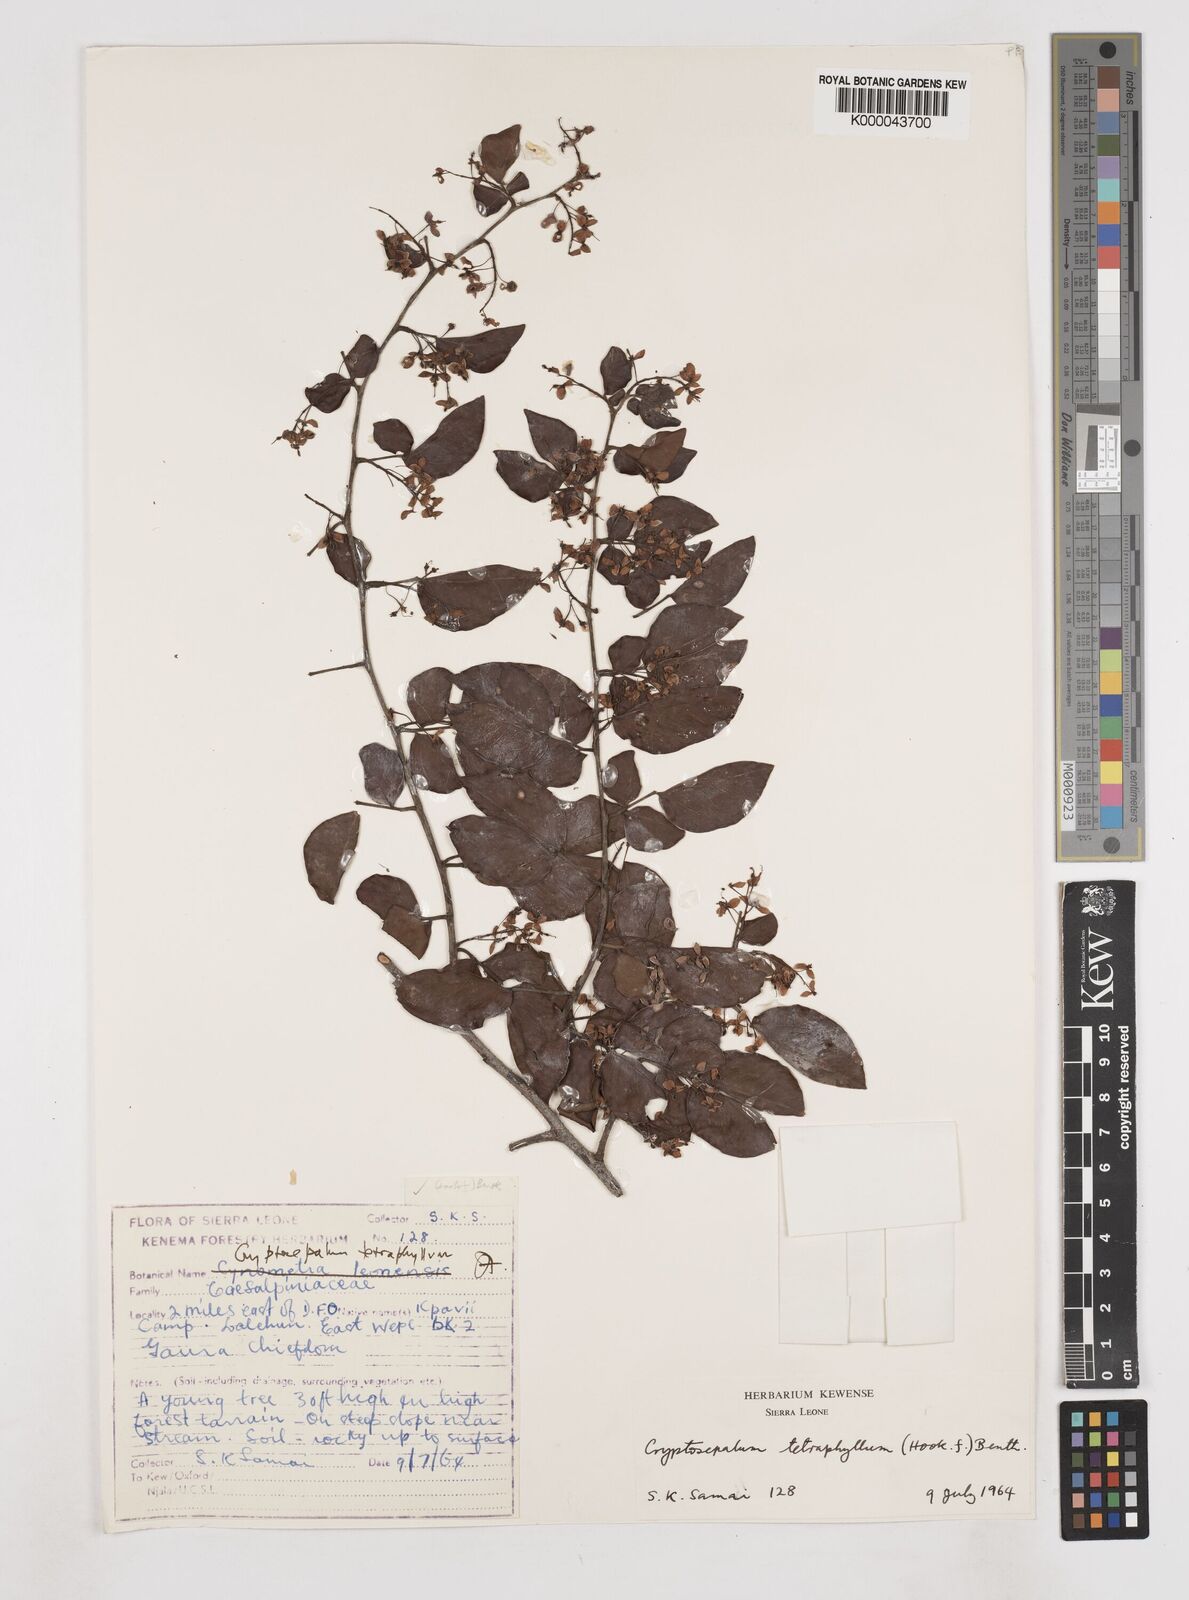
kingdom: Plantae
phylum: Tracheophyta
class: Magnoliopsida
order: Fabales
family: Fabaceae
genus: Cryptosepalum
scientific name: Cryptosepalum tetraphyllum
